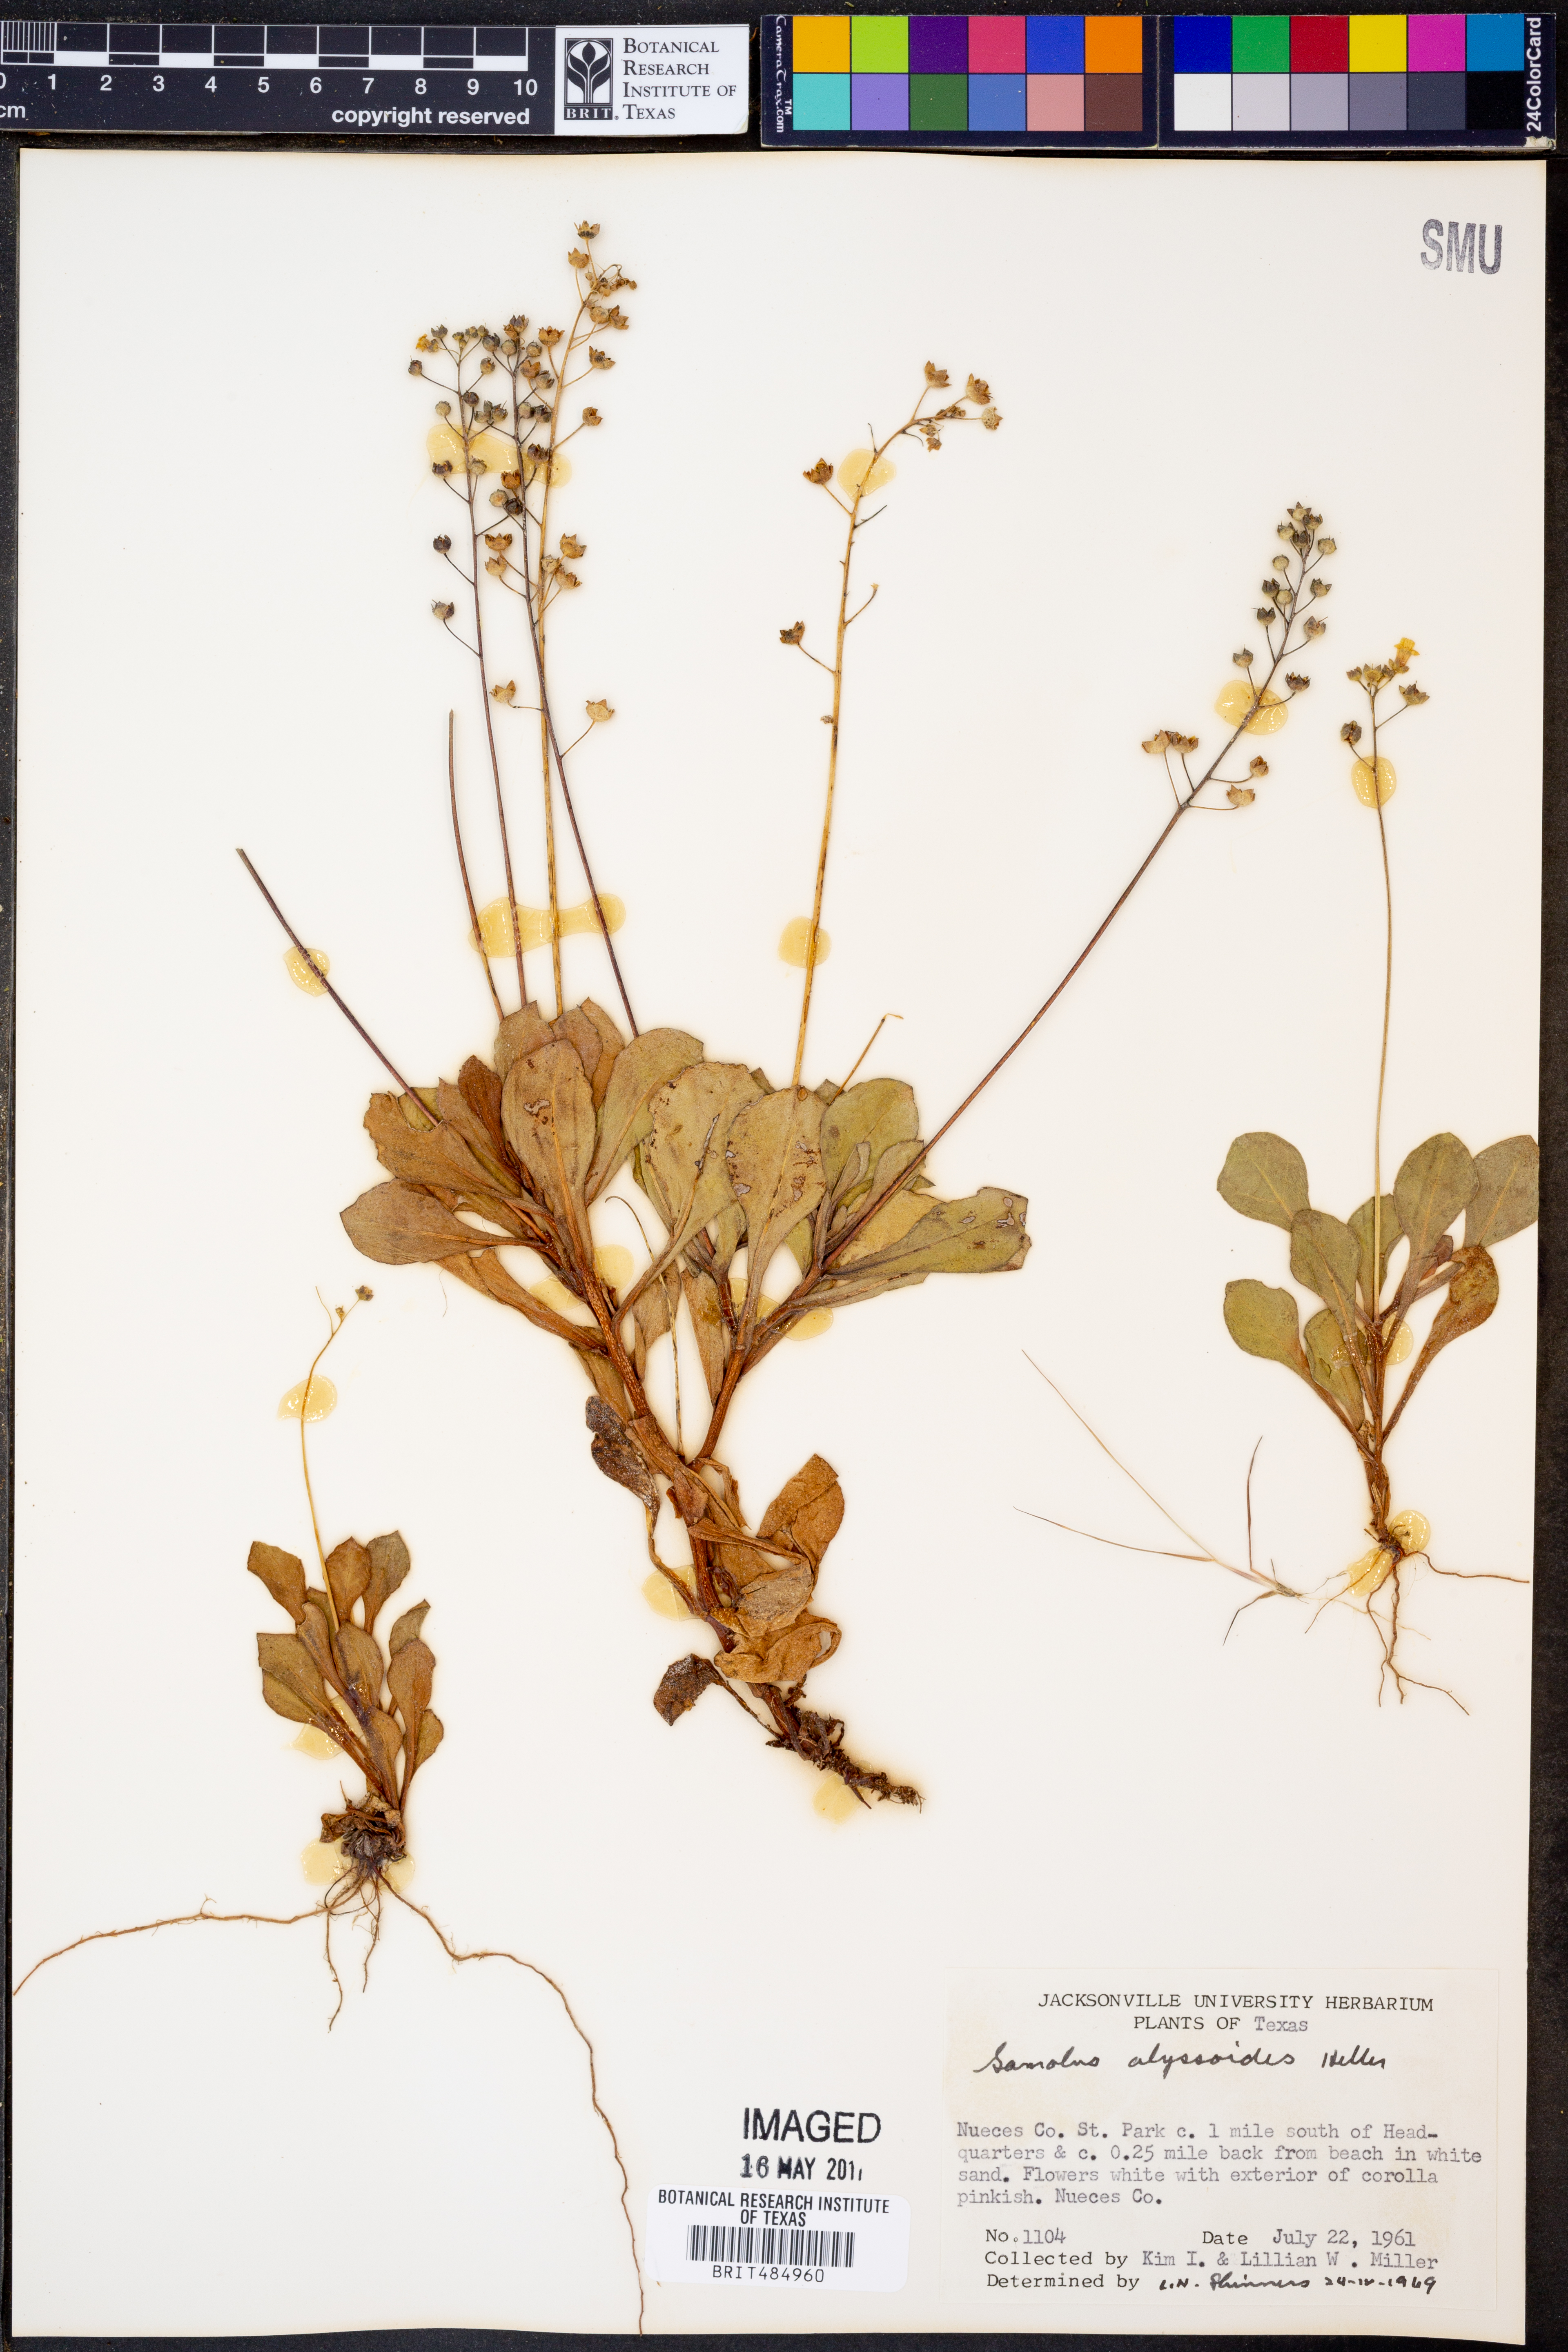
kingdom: Plantae
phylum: Tracheophyta
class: Magnoliopsida
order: Ericales
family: Primulaceae
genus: Samolus
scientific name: Samolus ebracteatus
